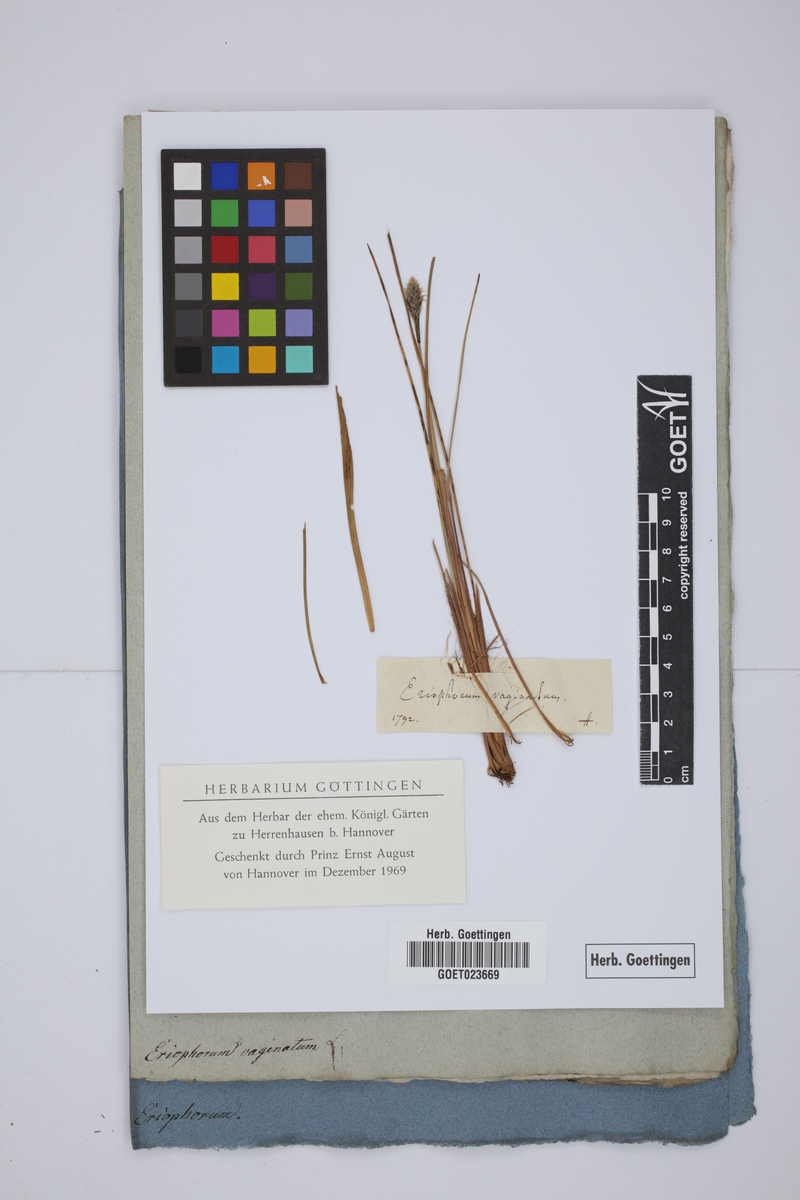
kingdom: Plantae
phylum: Tracheophyta
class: Liliopsida
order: Poales
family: Cyperaceae
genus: Eriophorum
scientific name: Eriophorum vaginatum
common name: Hare's-tail cottongrass
